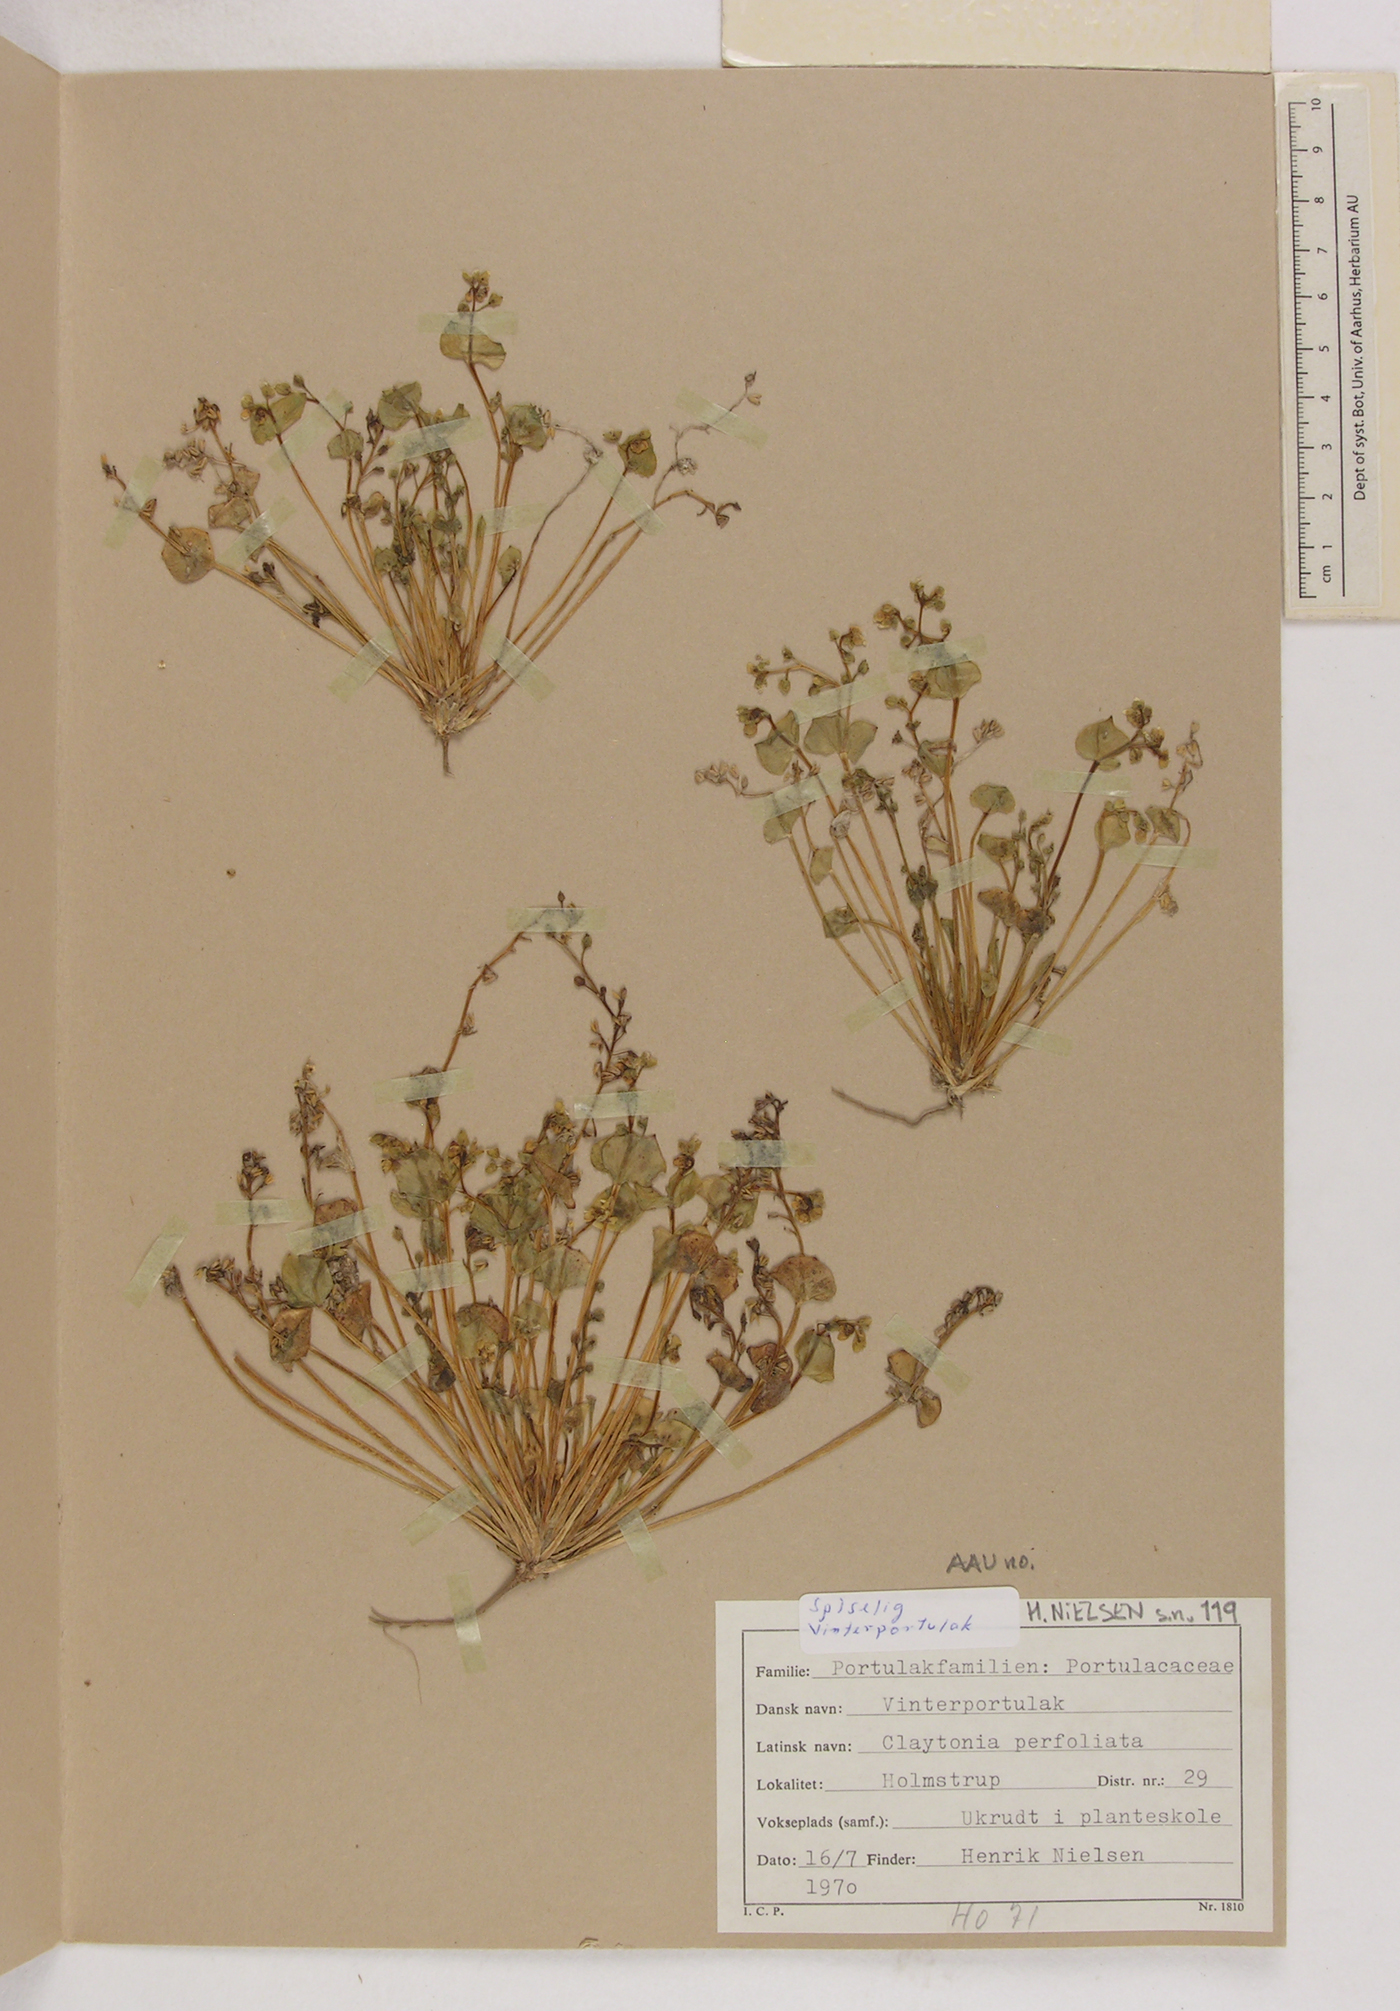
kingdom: Plantae
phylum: Tracheophyta
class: Magnoliopsida
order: Caryophyllales
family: Montiaceae
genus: Claytonia
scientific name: Claytonia perfoliata
